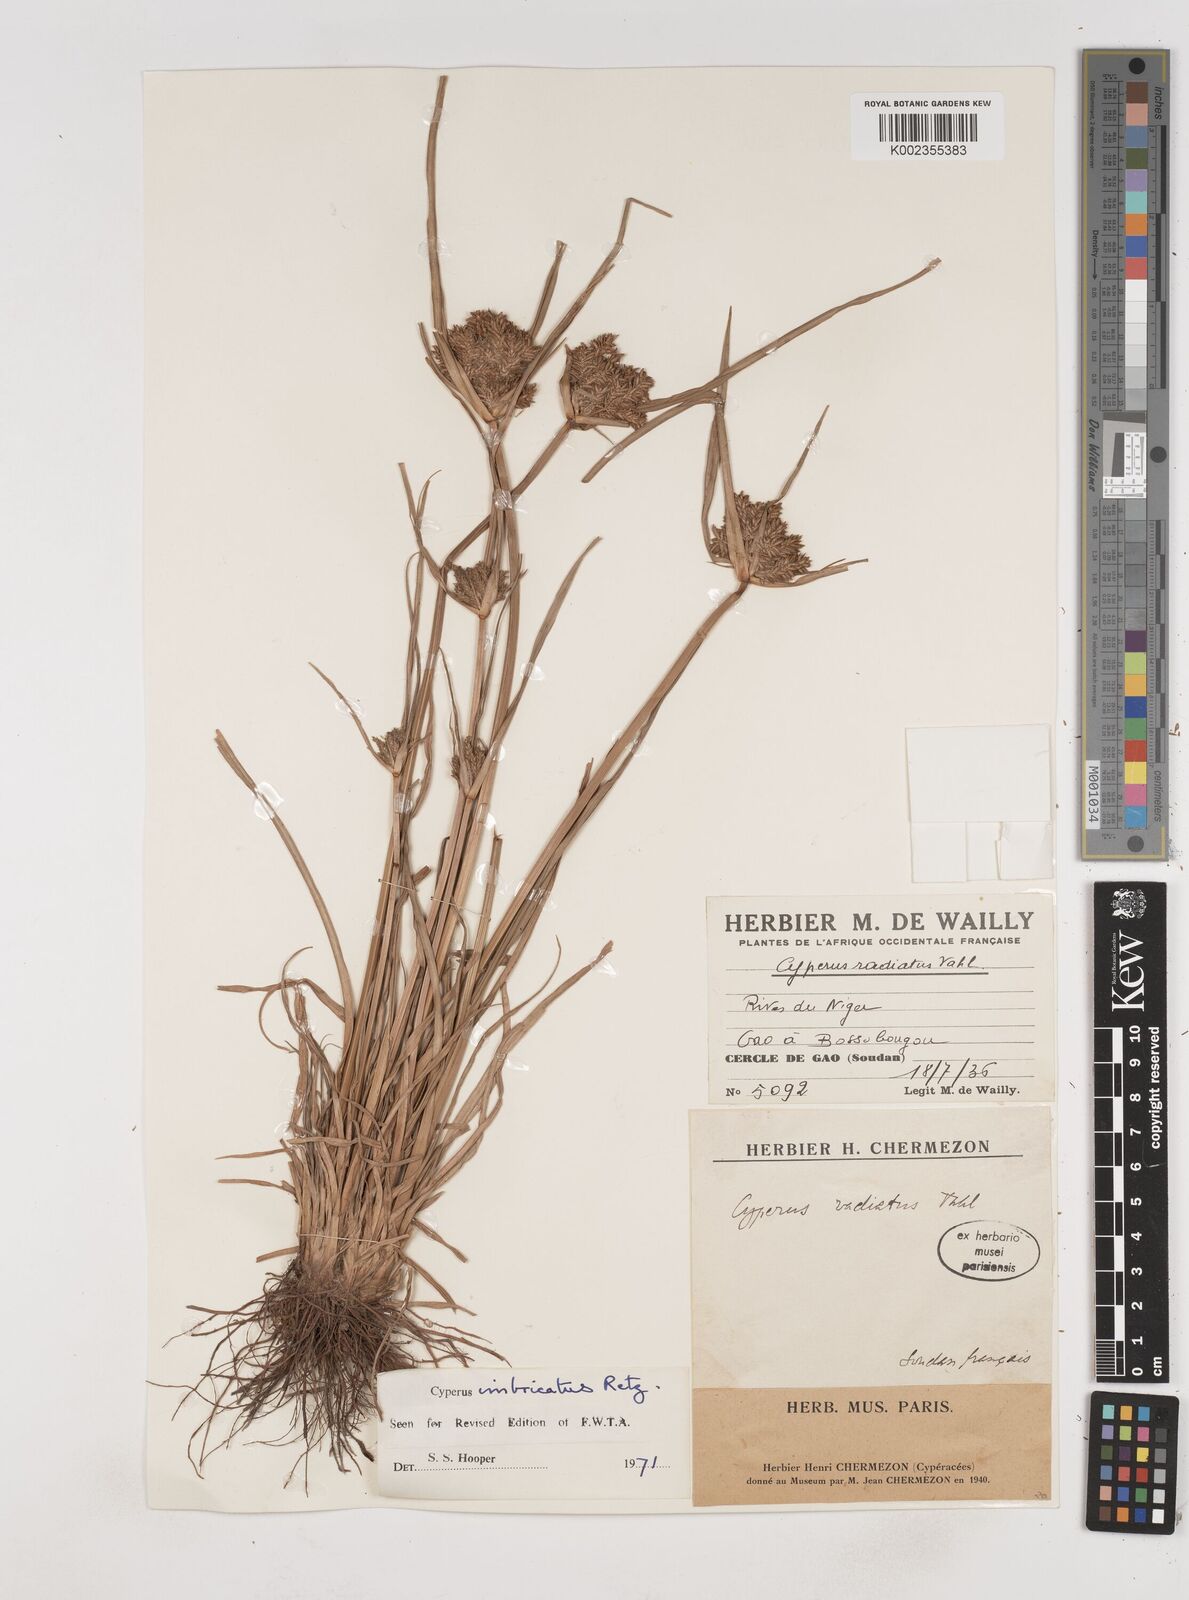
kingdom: Plantae
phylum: Tracheophyta
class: Liliopsida
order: Poales
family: Cyperaceae
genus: Cyperus
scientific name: Cyperus imbricatus
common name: Shingle flatsedge
